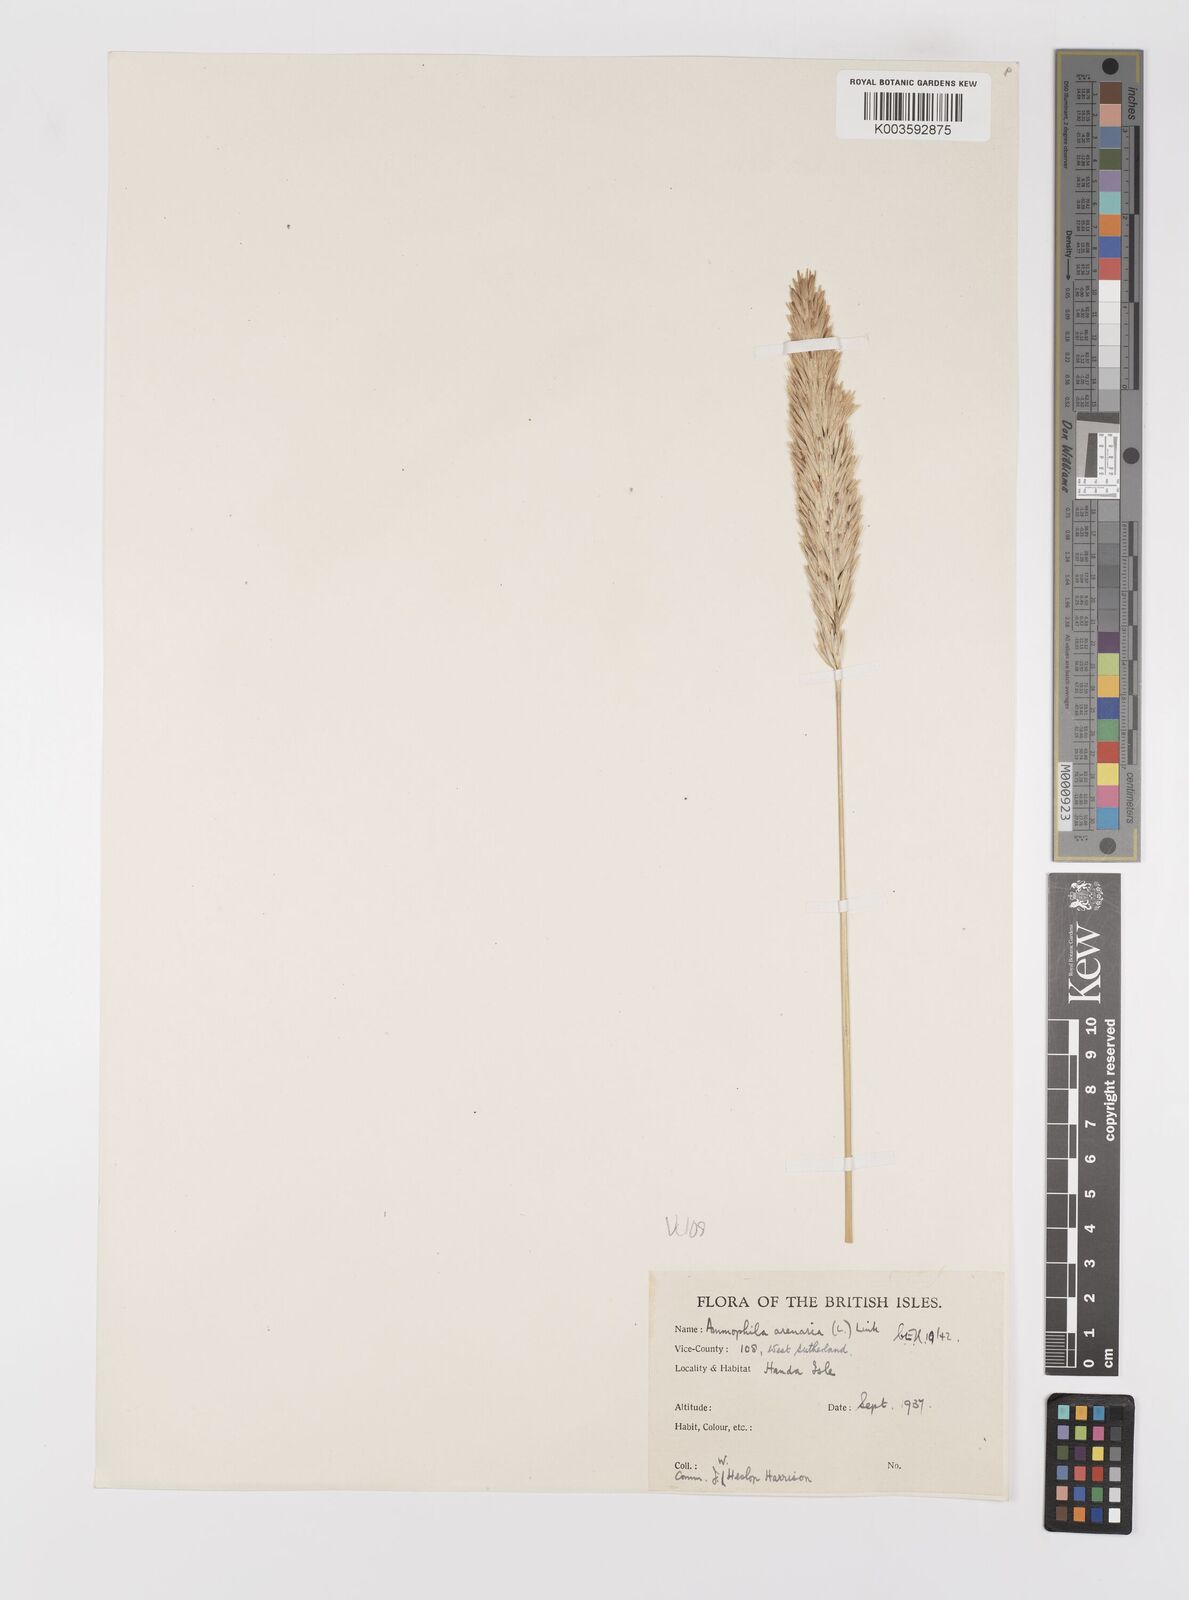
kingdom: Plantae
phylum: Tracheophyta
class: Liliopsida
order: Poales
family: Poaceae
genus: Calamagrostis
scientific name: Calamagrostis arenaria
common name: European beachgrass
